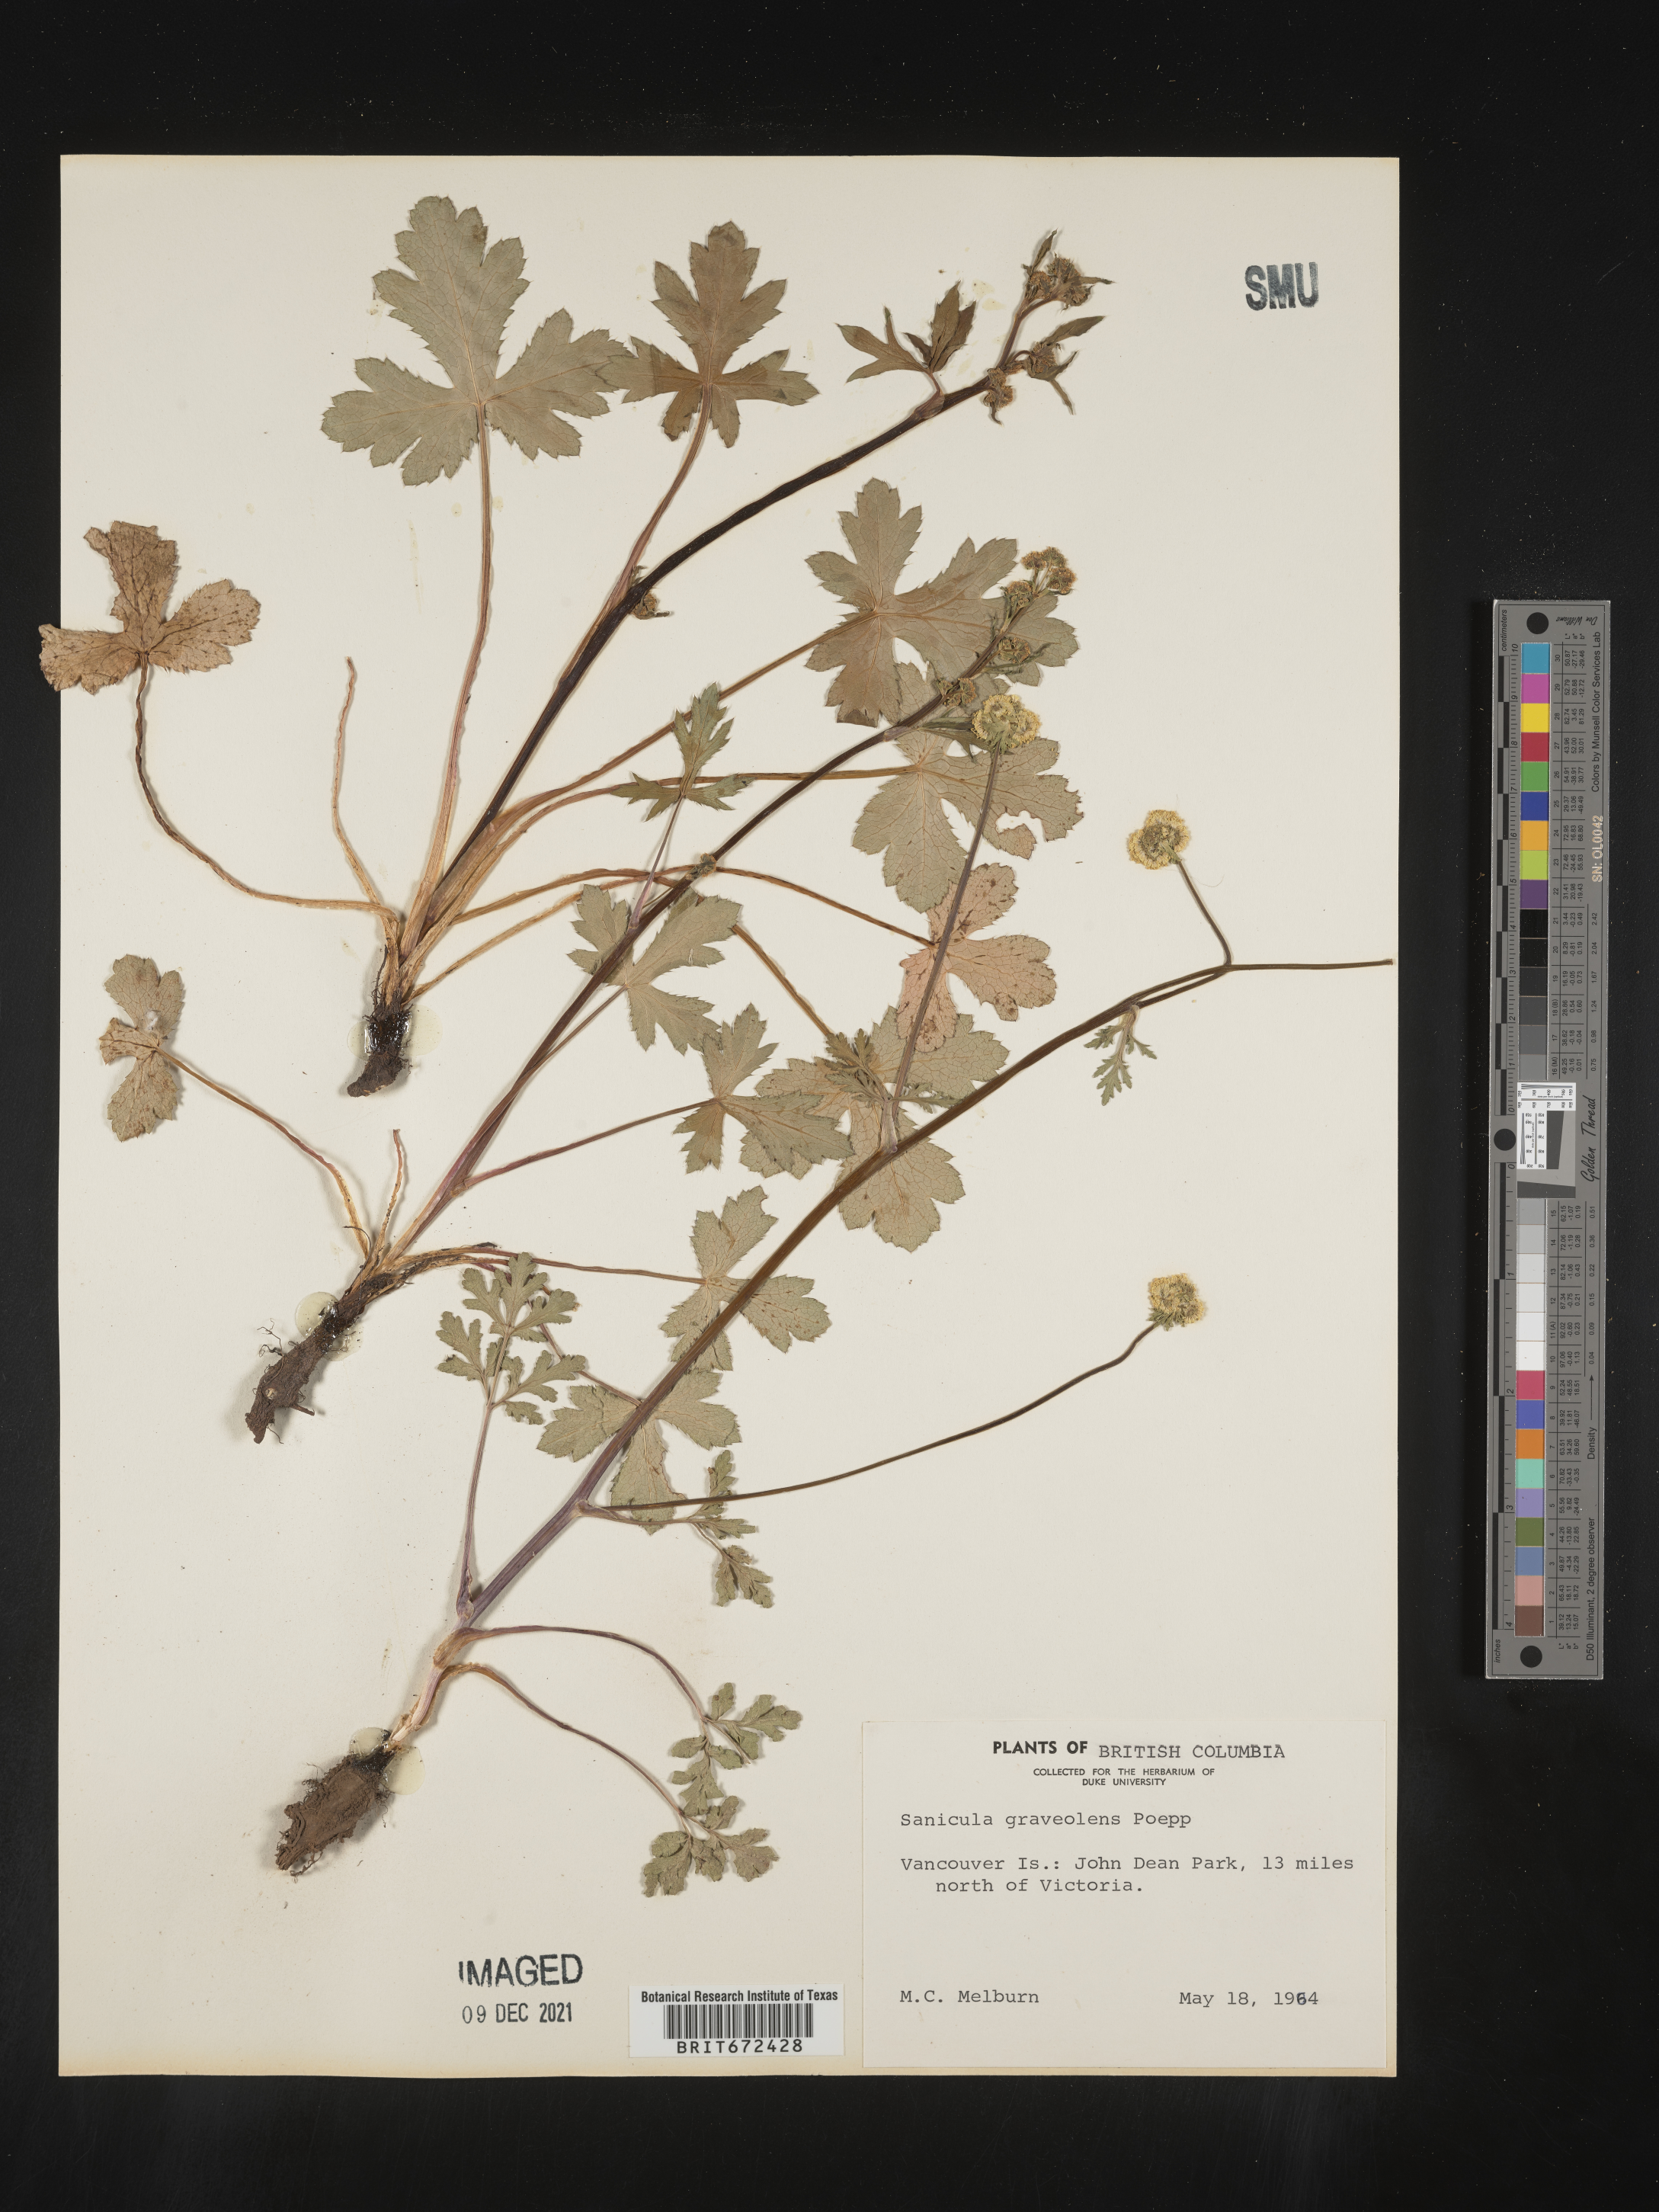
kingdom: Plantae
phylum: Tracheophyta
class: Magnoliopsida
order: Apiales
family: Apiaceae
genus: Sanicula
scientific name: Sanicula graveolens
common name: Sierra sanicle
